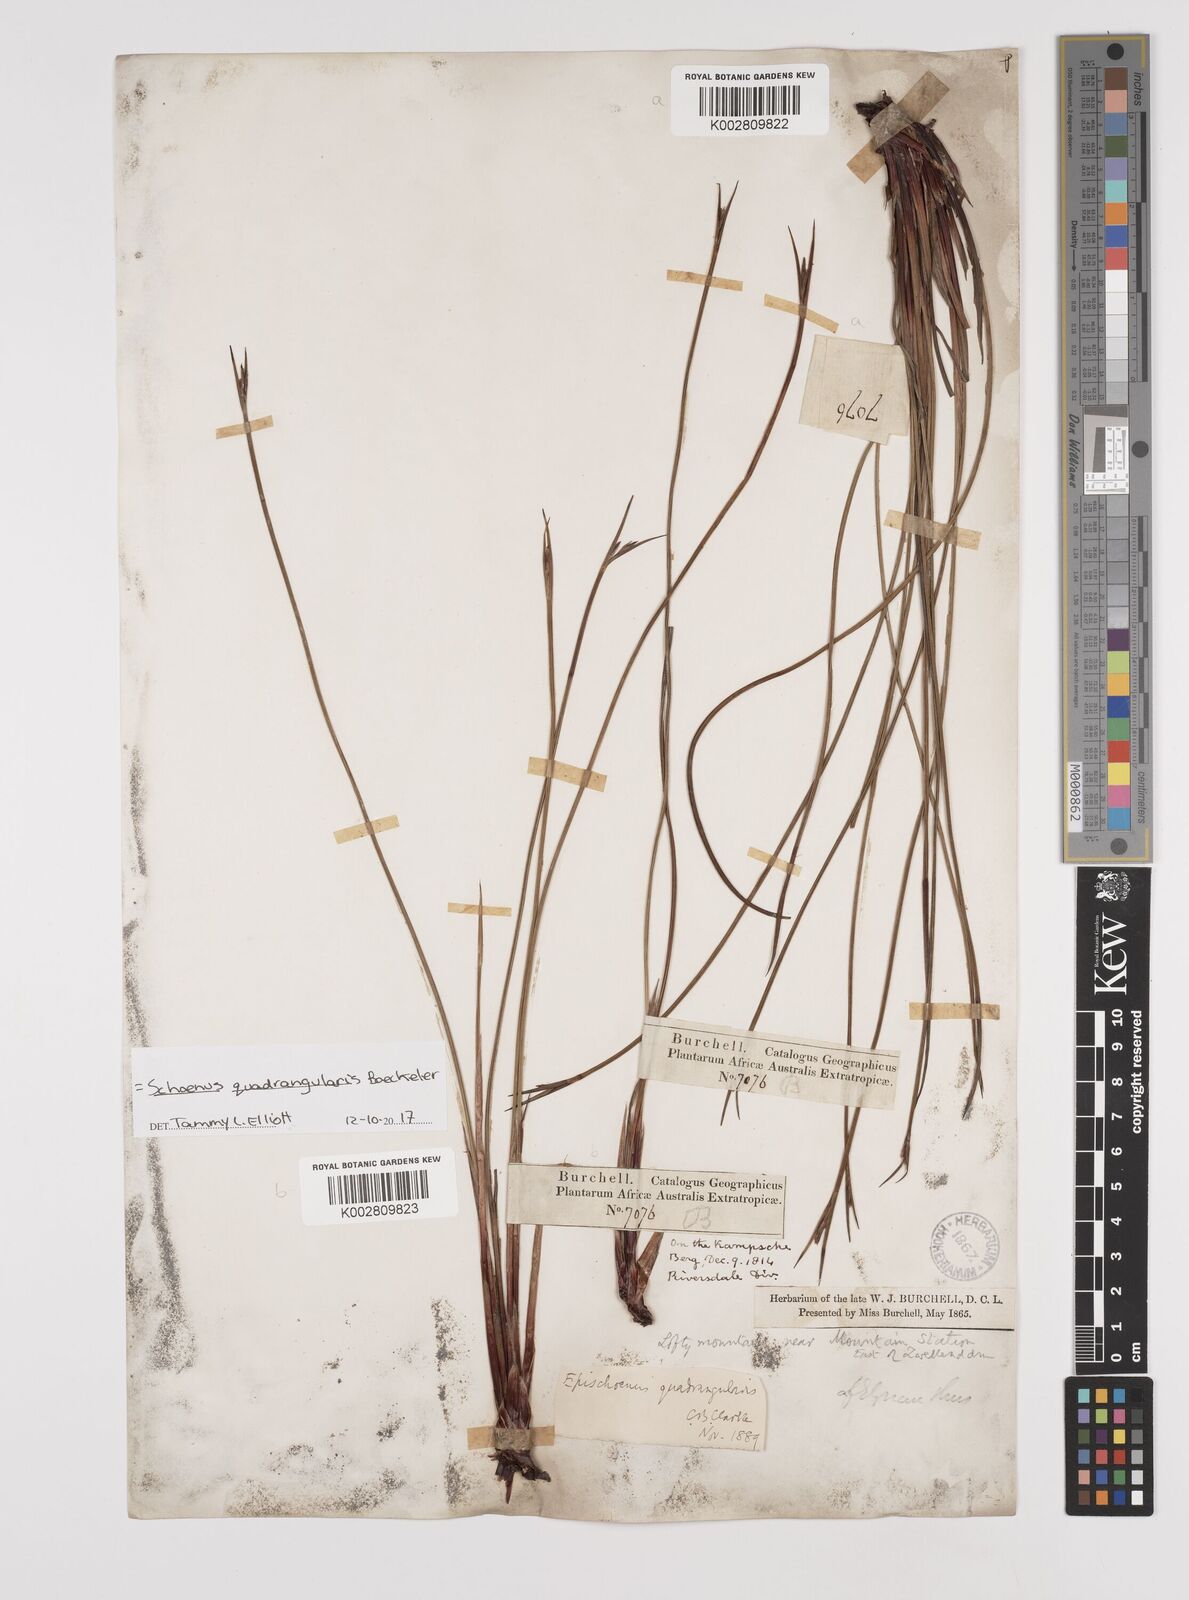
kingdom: Plantae
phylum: Tracheophyta
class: Liliopsida
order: Poales
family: Cyperaceae
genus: Schoenus
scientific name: Schoenus quadrangularis
